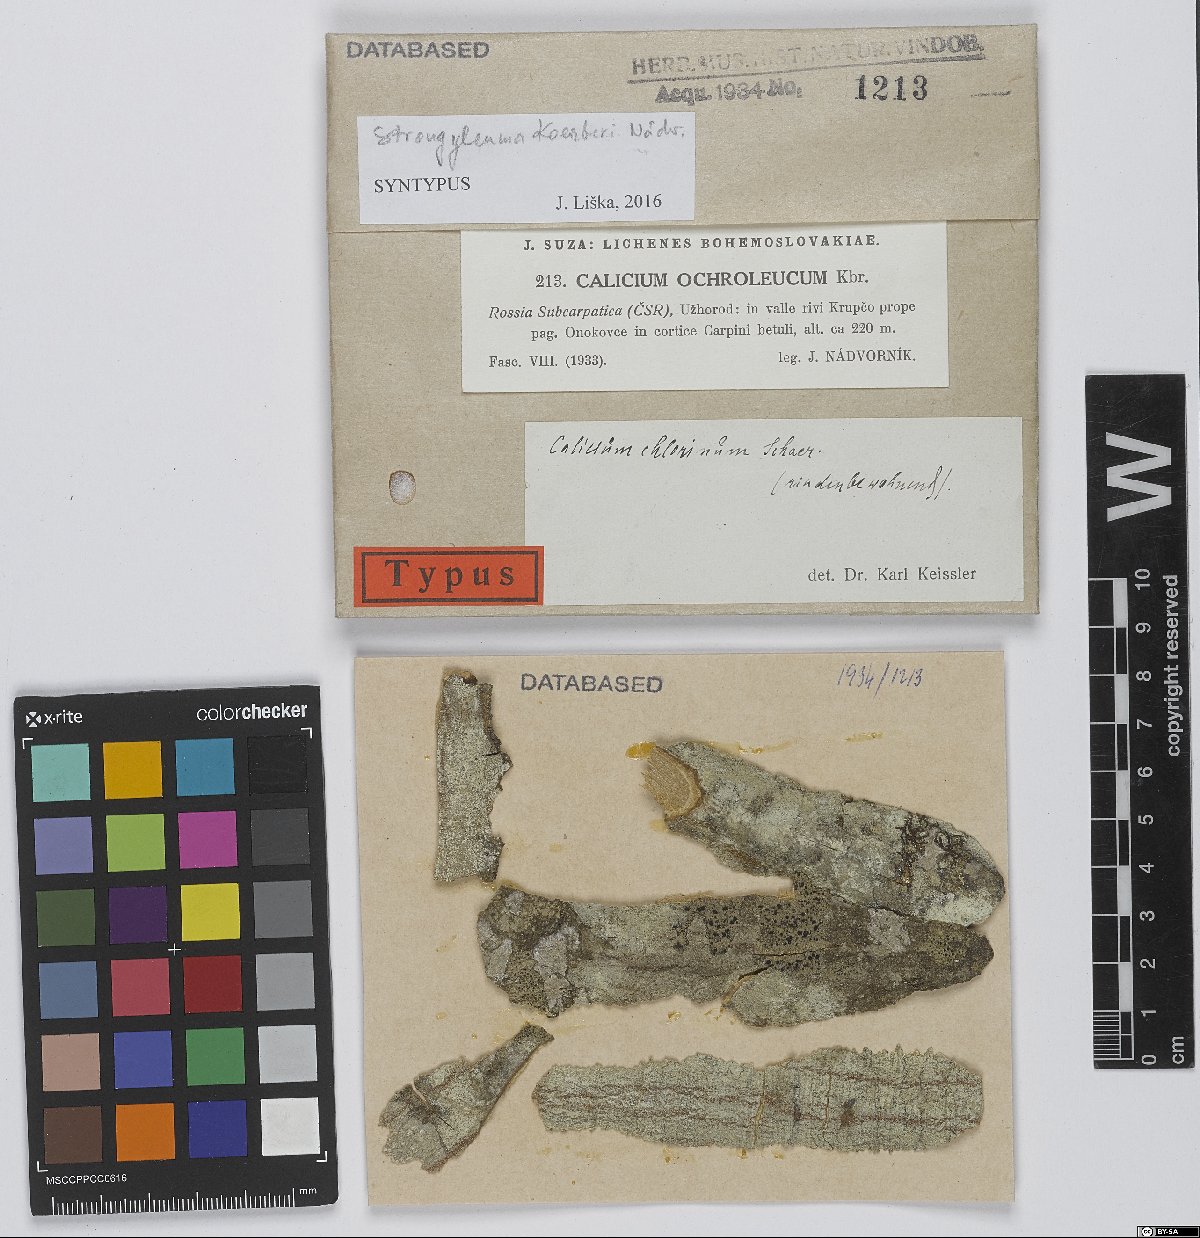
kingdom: Fungi
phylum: Ascomycota
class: Eurotiomycetes
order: Mycocaliciales
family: Mycocaliciaceae
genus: Chaenothecopsis
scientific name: Chaenothecopsis koerberi
